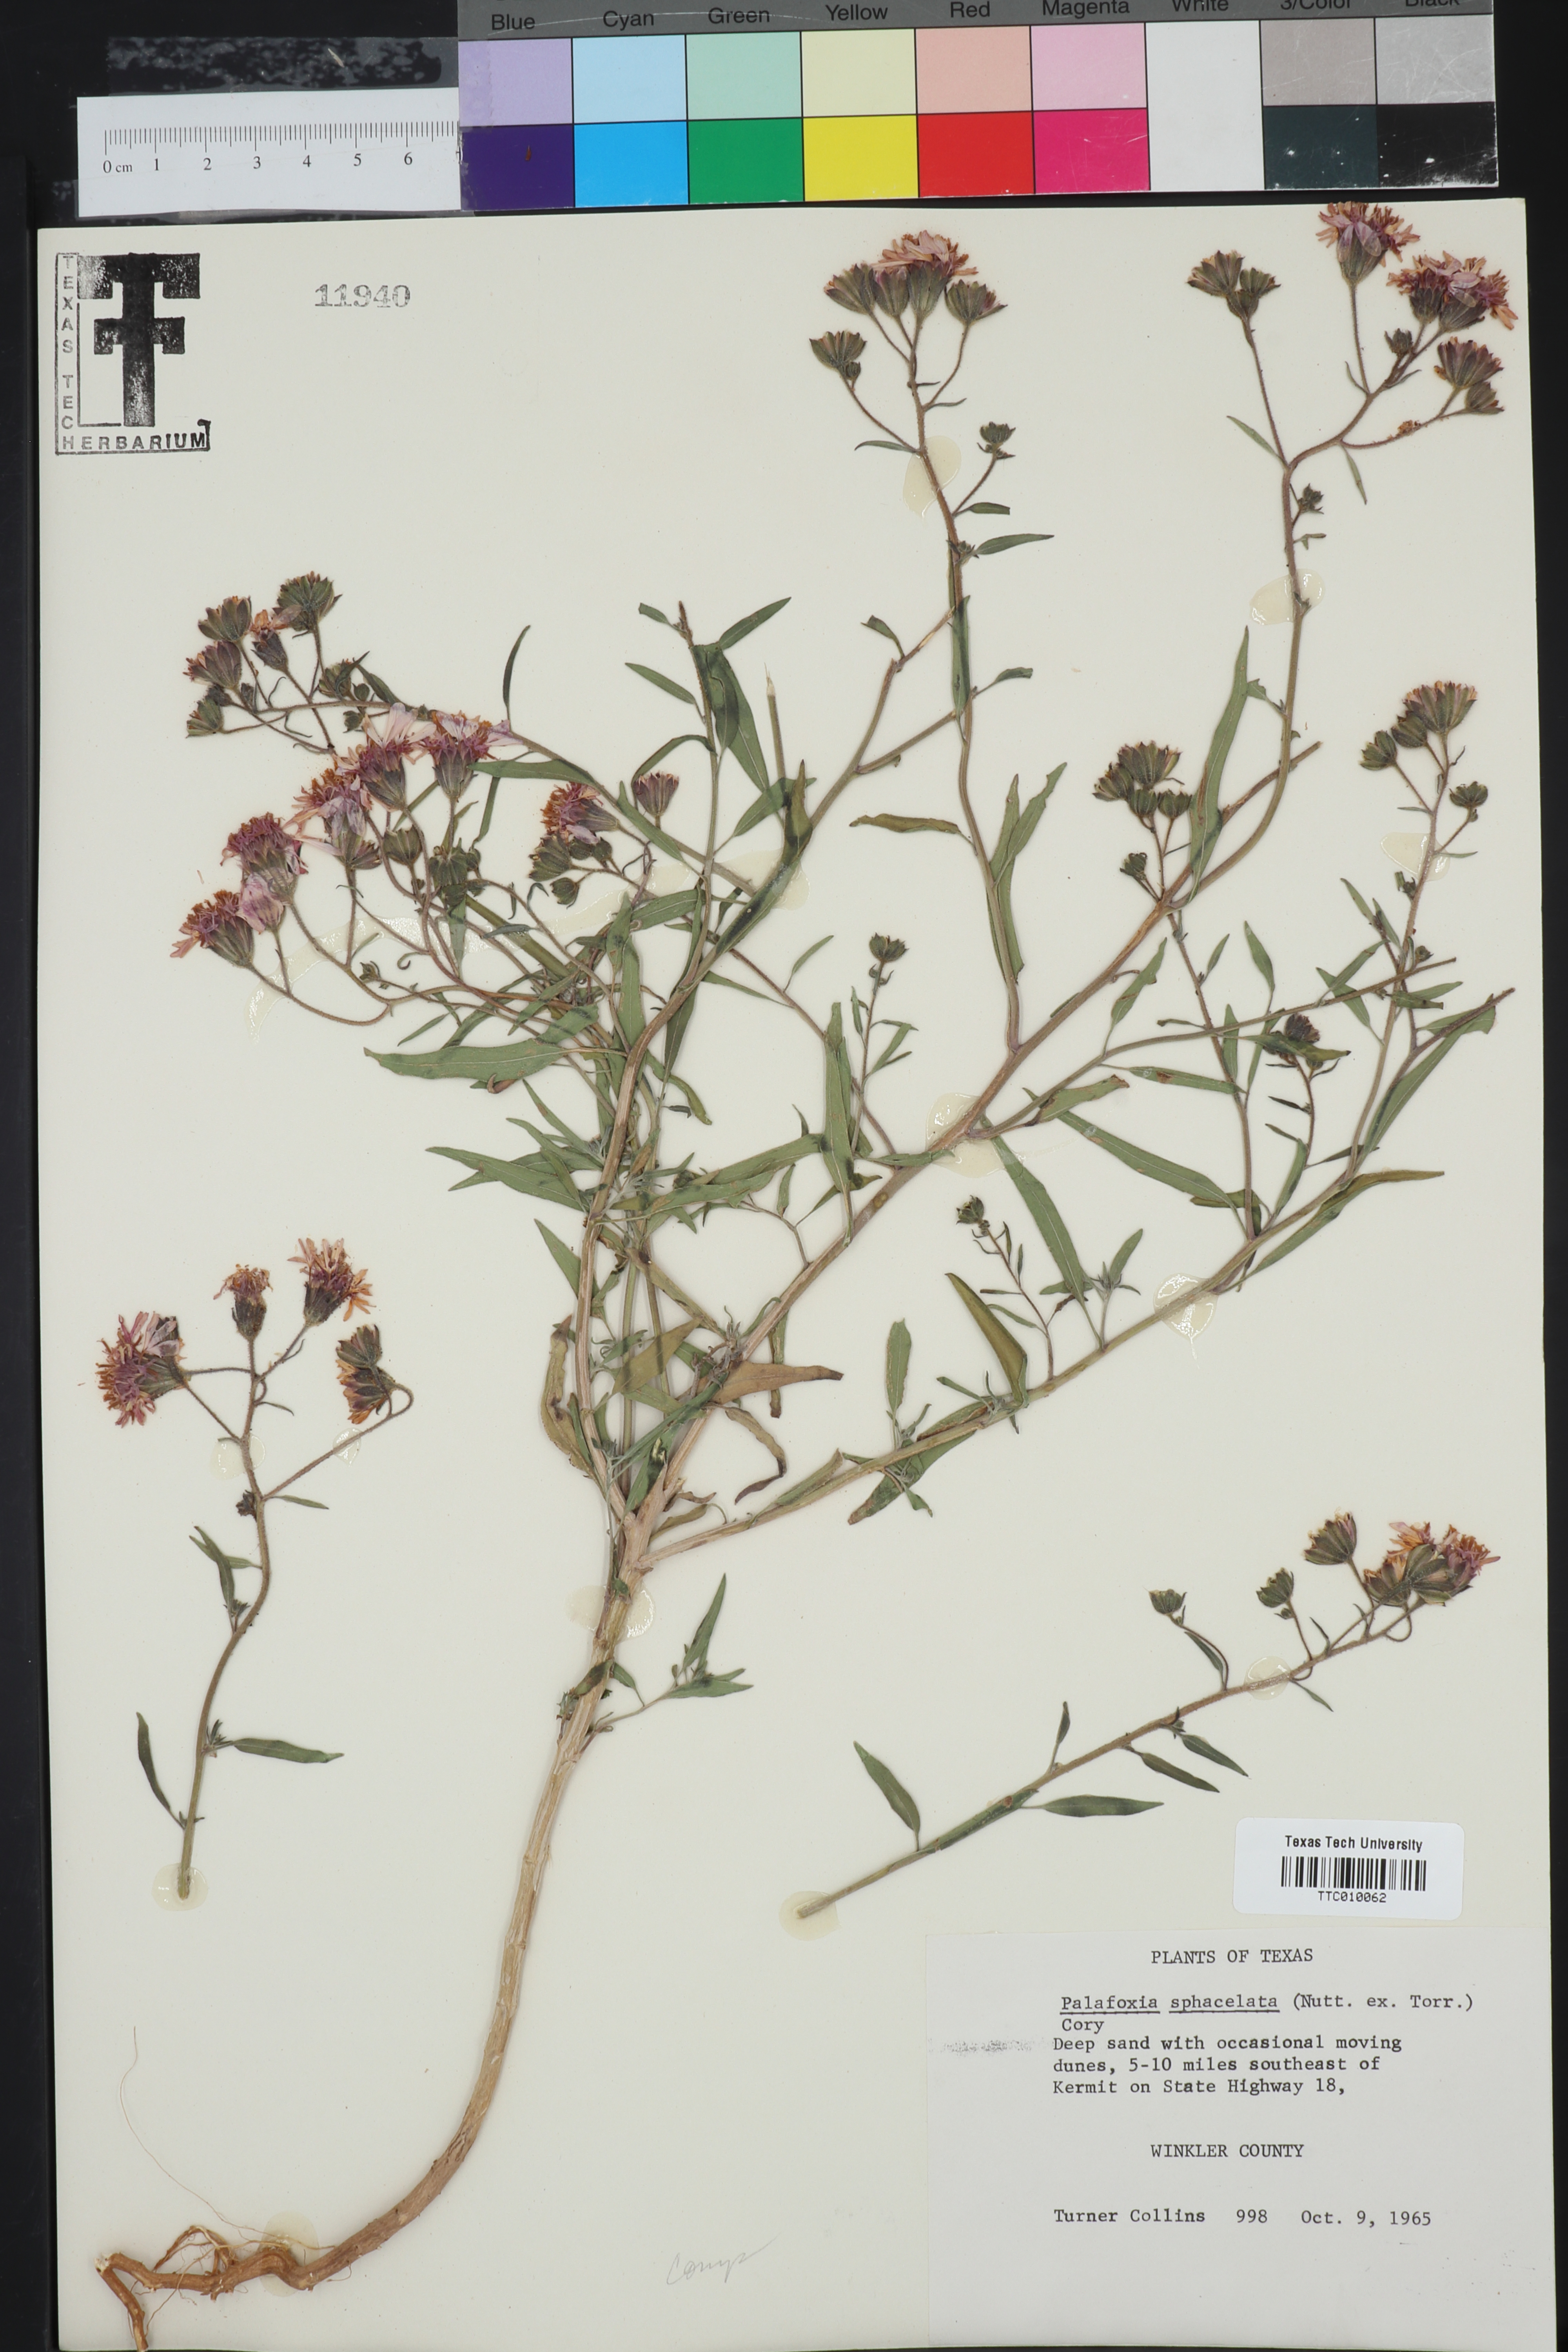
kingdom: Plantae
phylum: Tracheophyta
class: Magnoliopsida
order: Asterales
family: Asteraceae
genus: Palafoxia
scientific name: Palafoxia sphacelata
